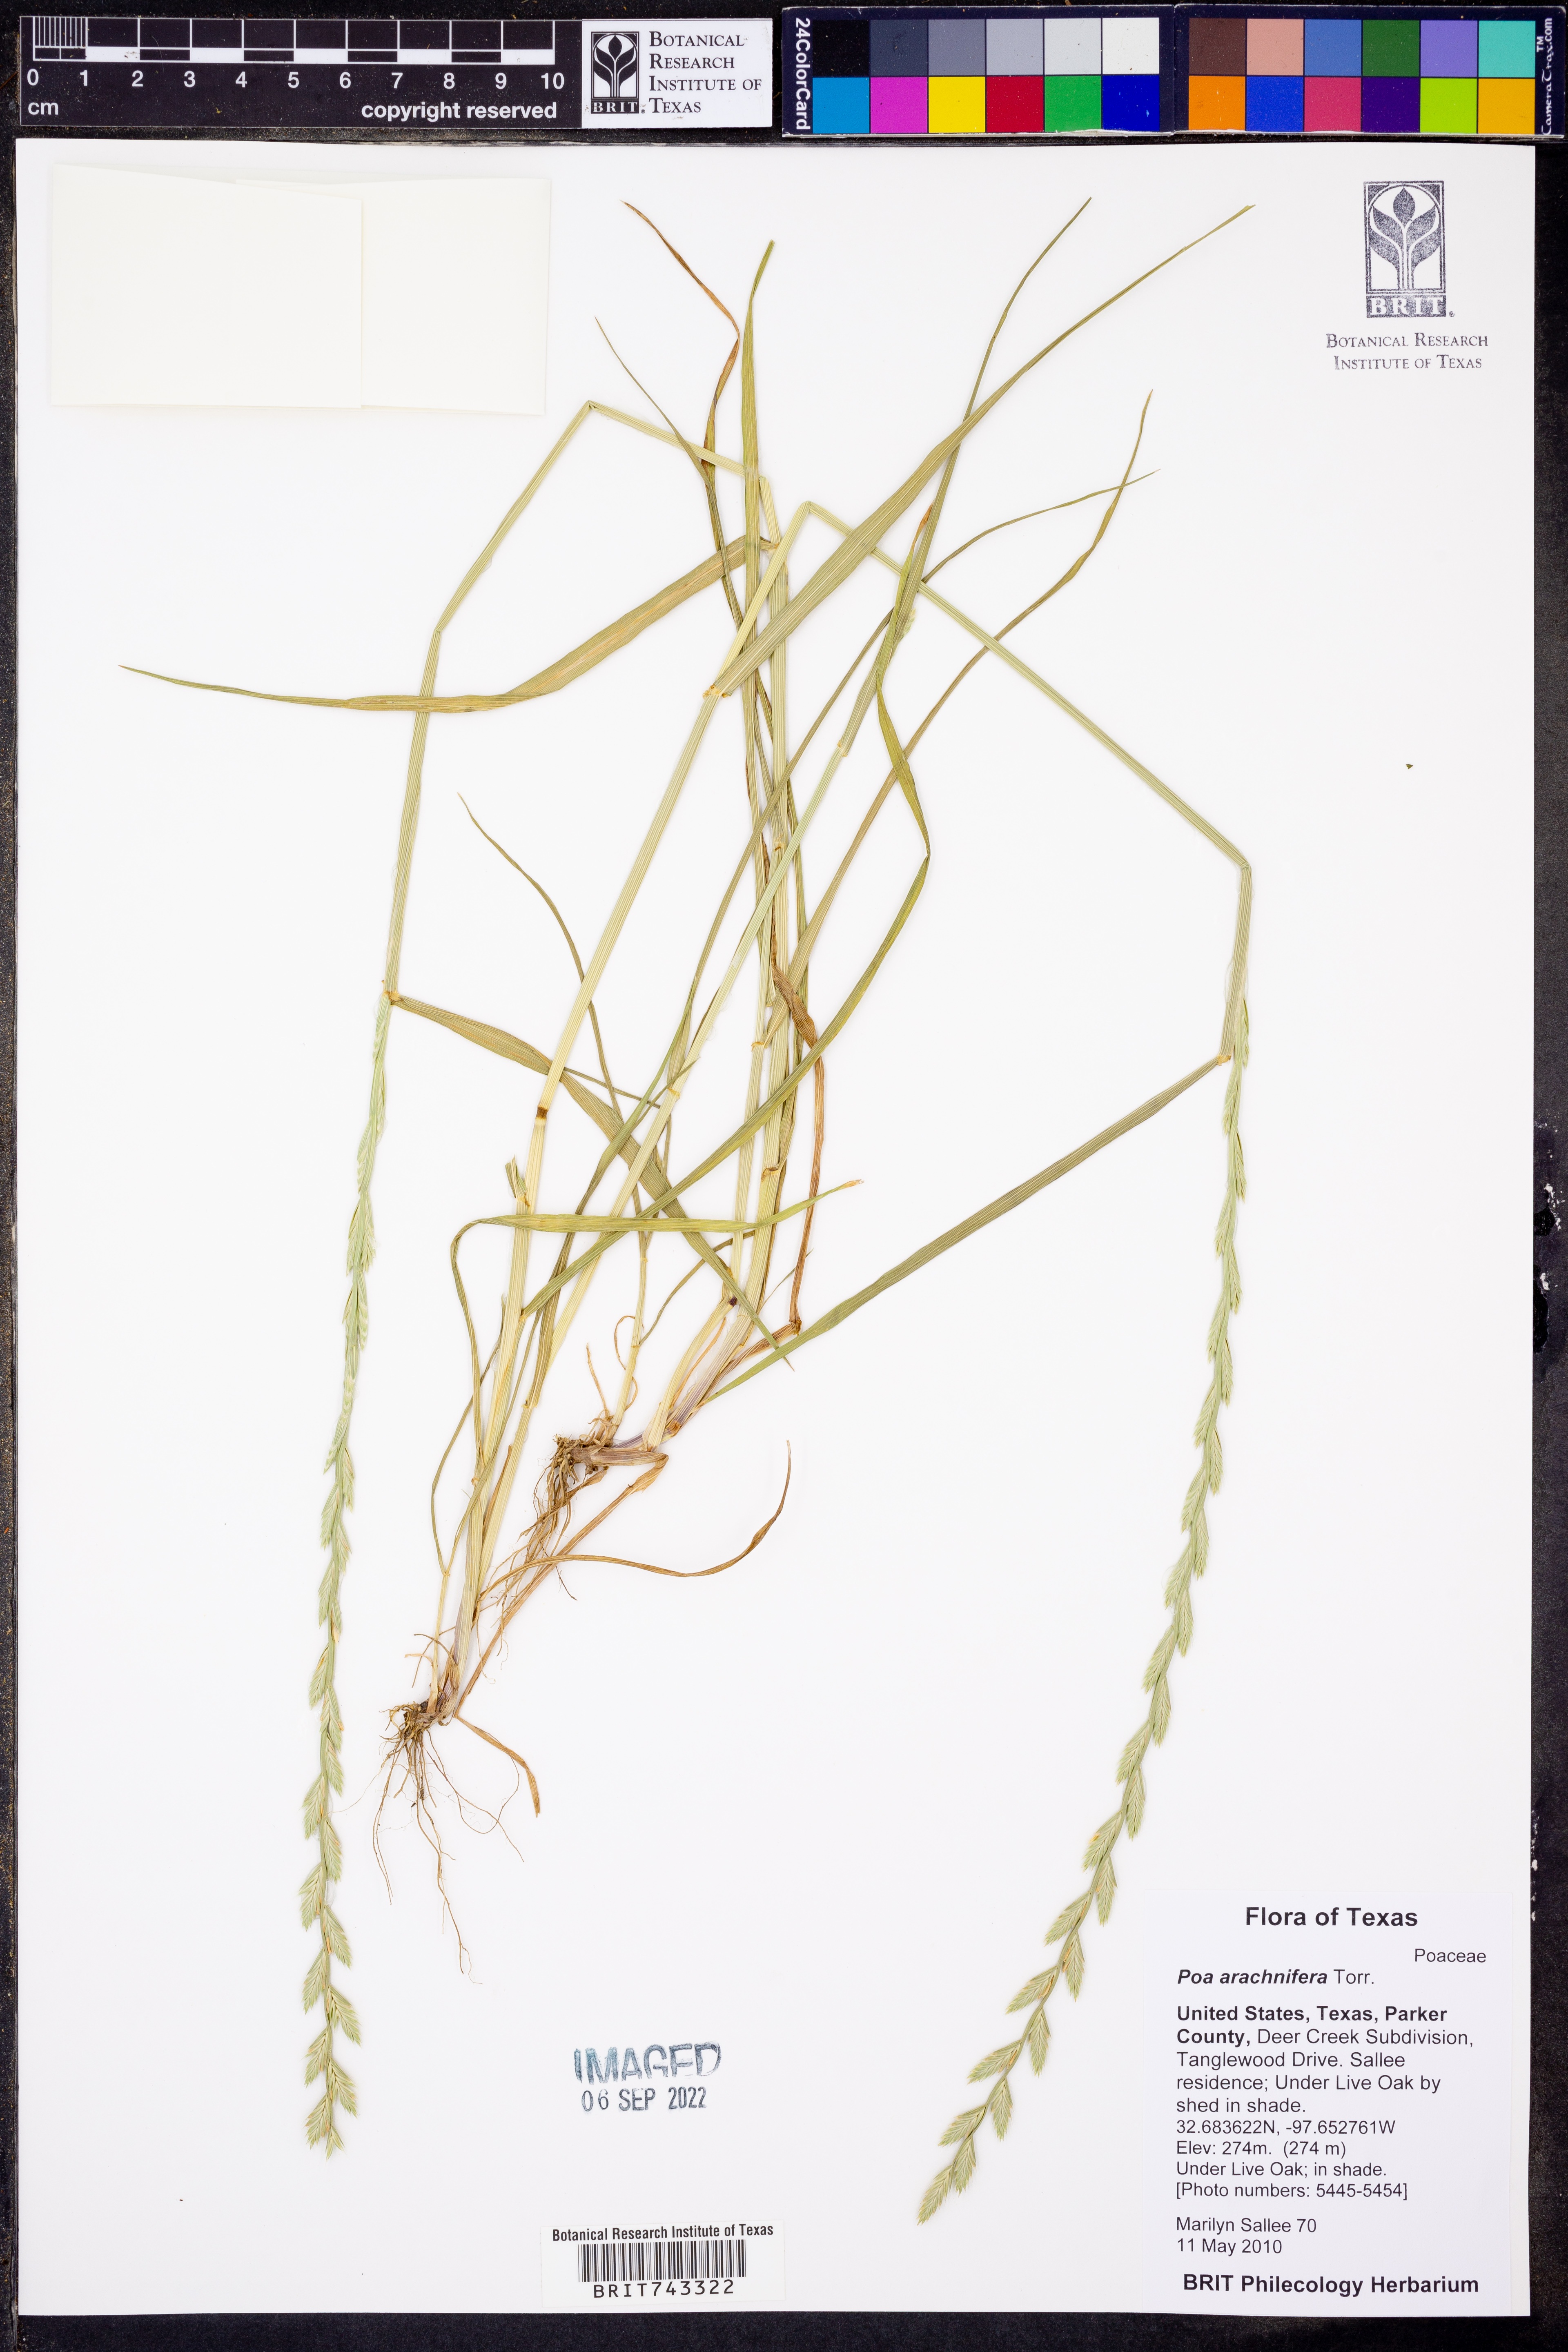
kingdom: Plantae
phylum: Tracheophyta
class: Liliopsida
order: Poales
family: Poaceae
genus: Poa
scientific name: Poa arachnifera
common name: Texas bluegrass
